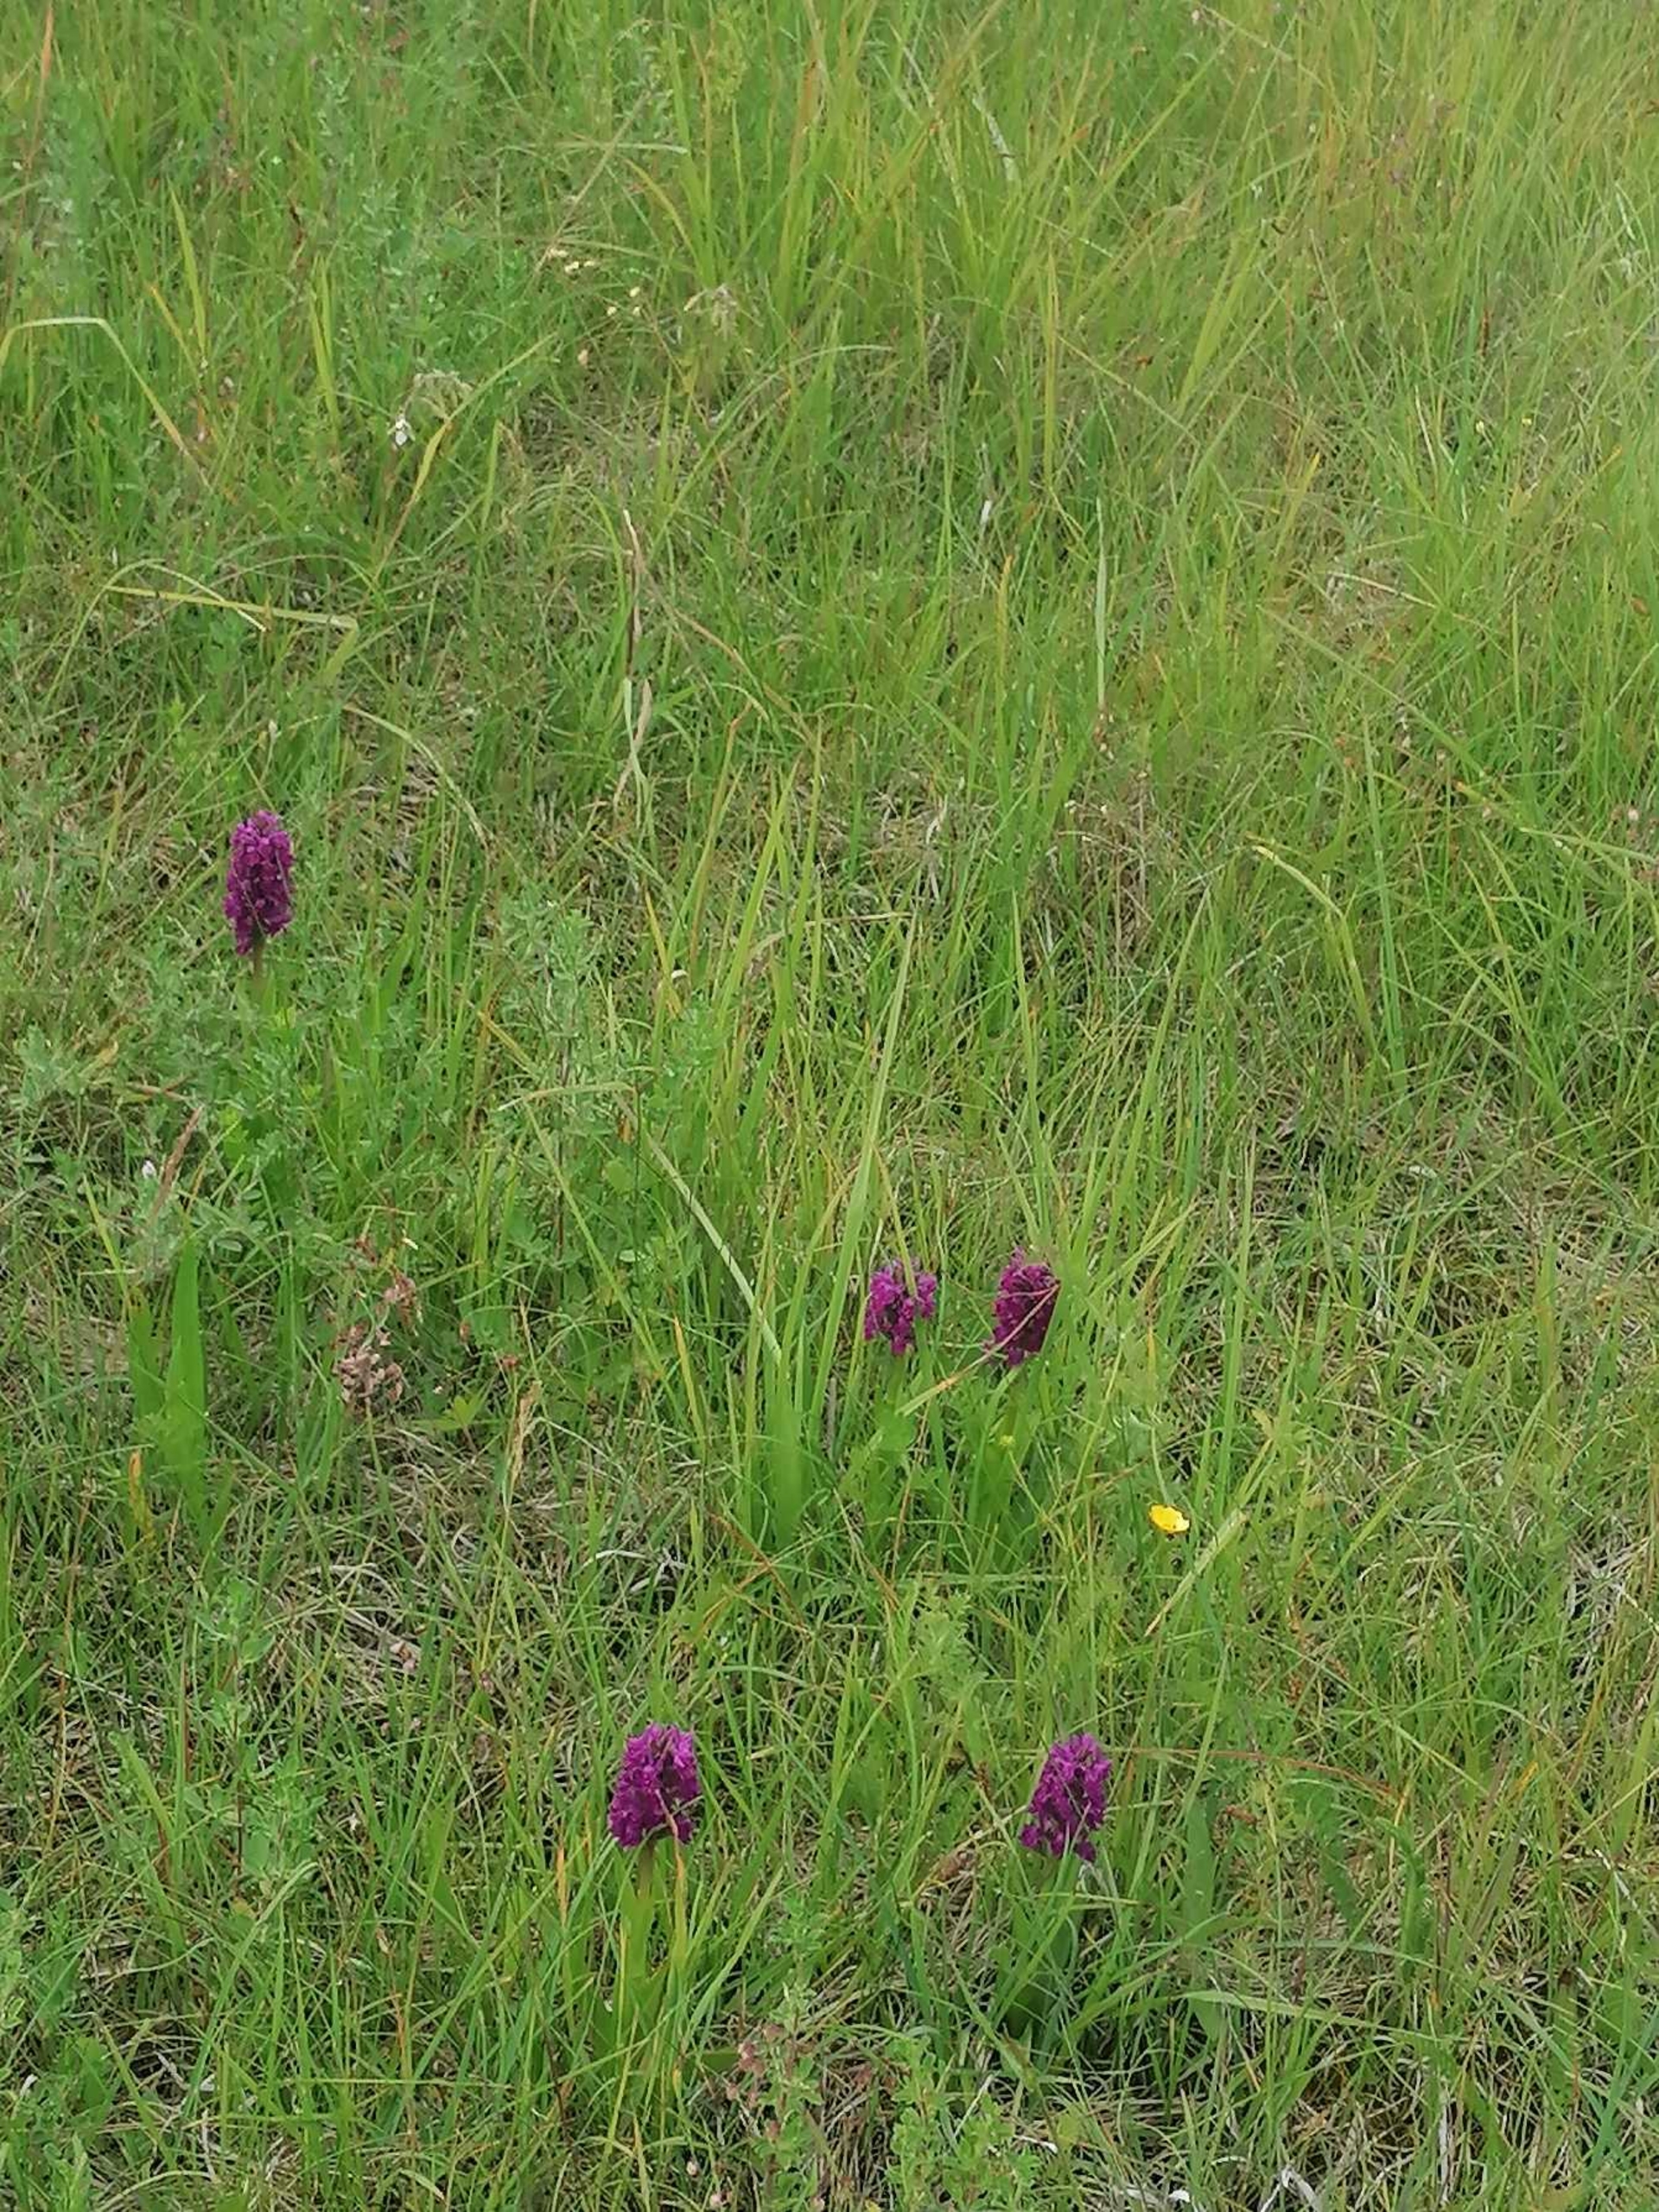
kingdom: Plantae
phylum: Tracheophyta
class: Liliopsida
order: Asparagales
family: Orchidaceae
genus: Dactylorhiza
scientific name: Dactylorhiza majalis
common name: Purpur-gøgeurt
